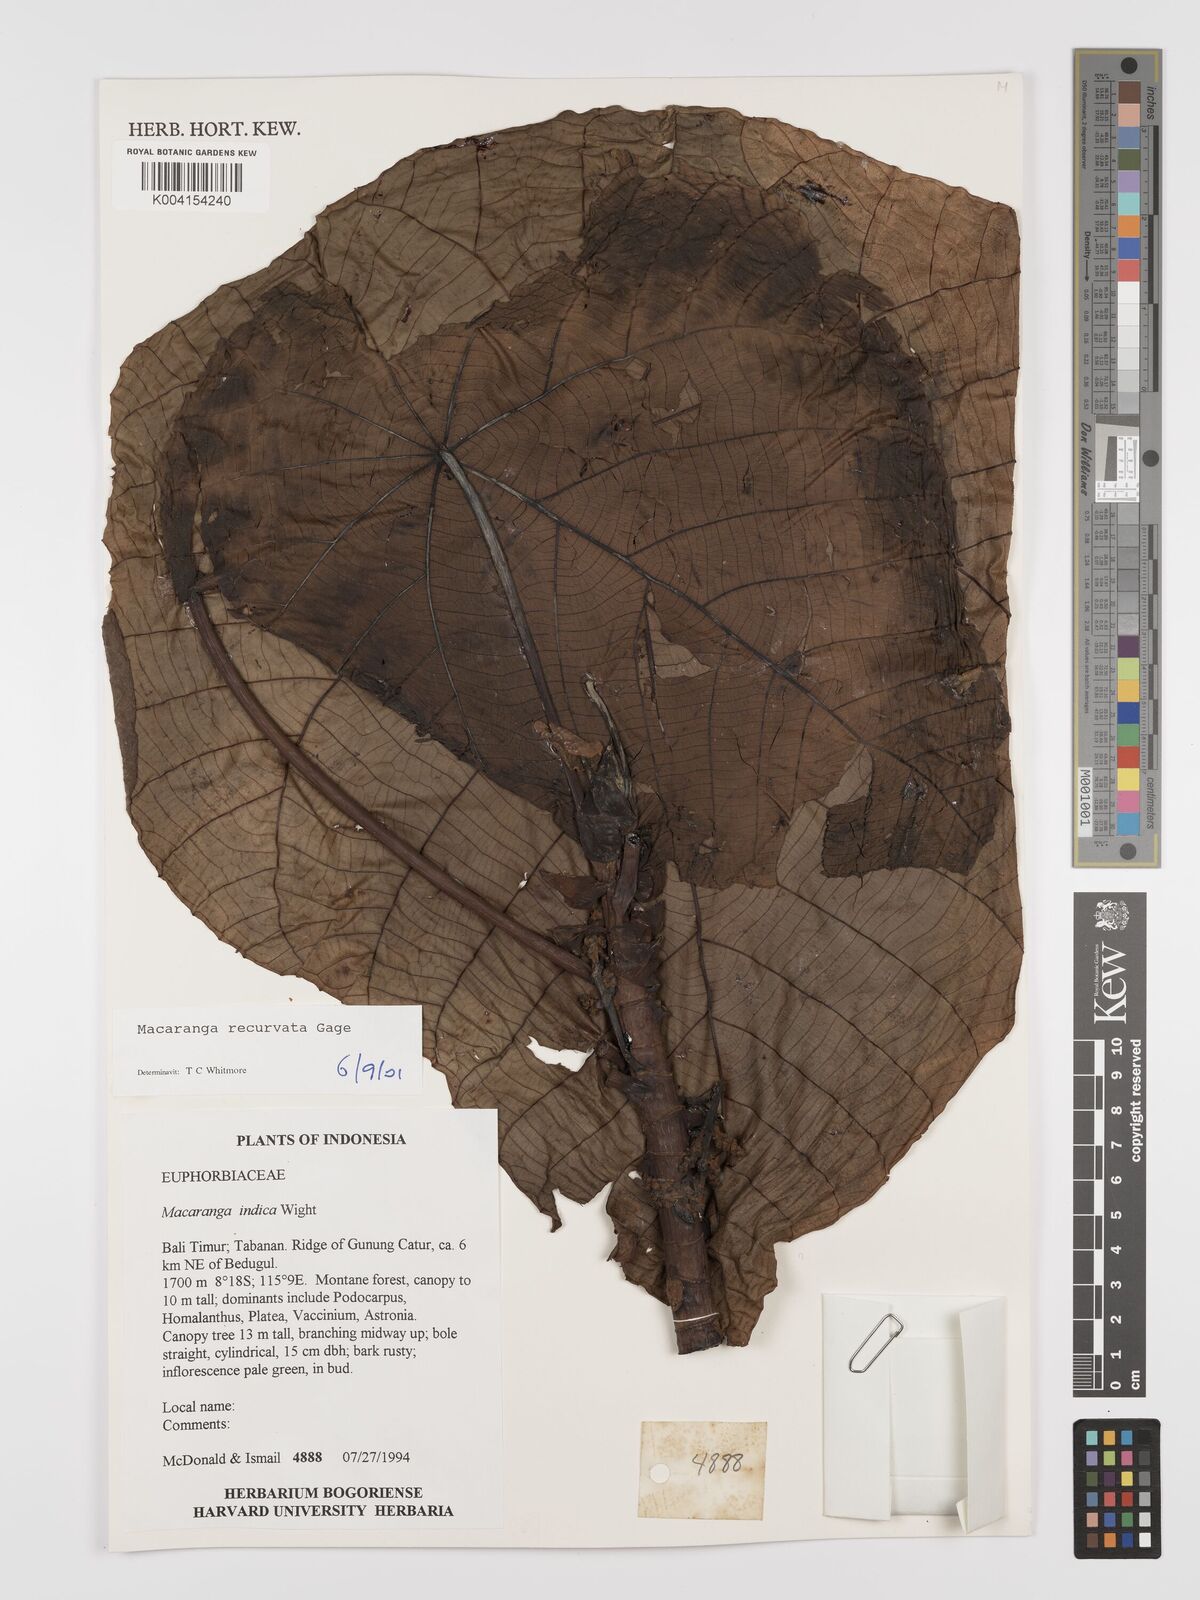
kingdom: Plantae
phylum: Tracheophyta
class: Magnoliopsida
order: Malpighiales
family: Euphorbiaceae
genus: Macaranga
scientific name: Macaranga recurvata
